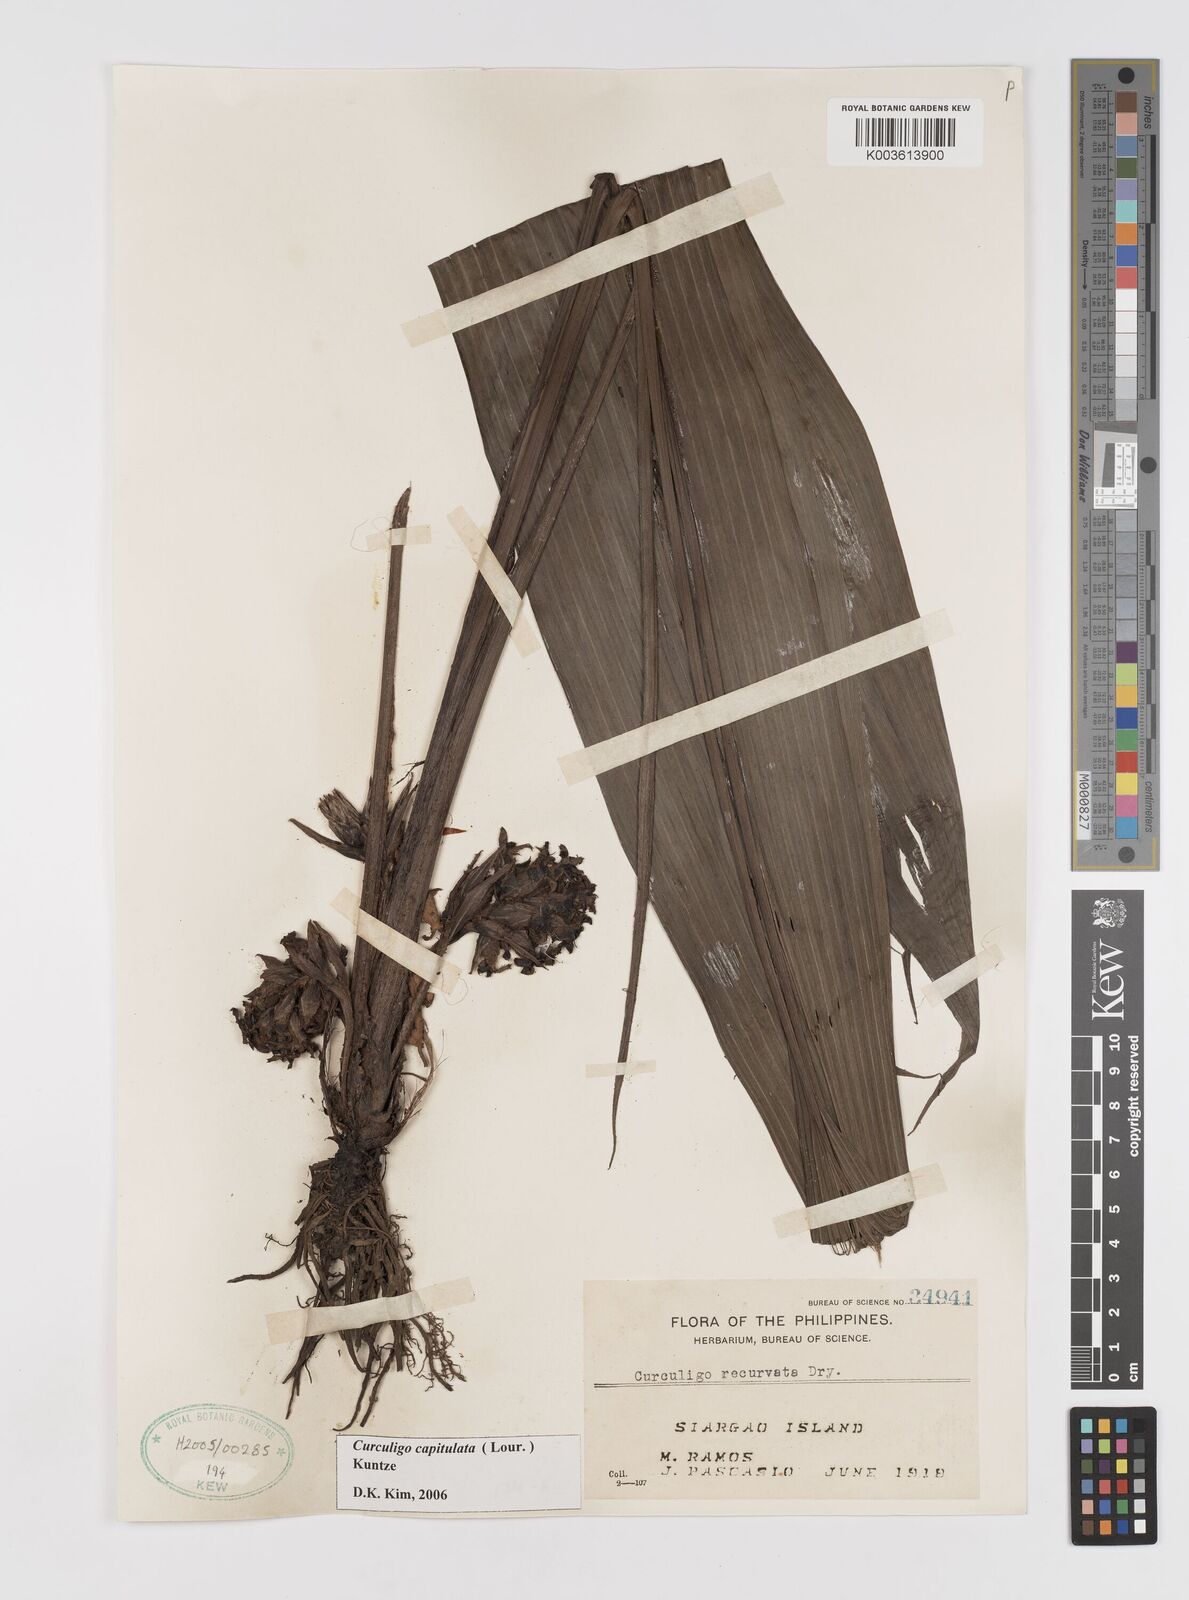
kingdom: Plantae
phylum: Tracheophyta
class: Liliopsida
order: Asparagales
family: Hypoxidaceae
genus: Curculigo
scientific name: Curculigo capitulata
